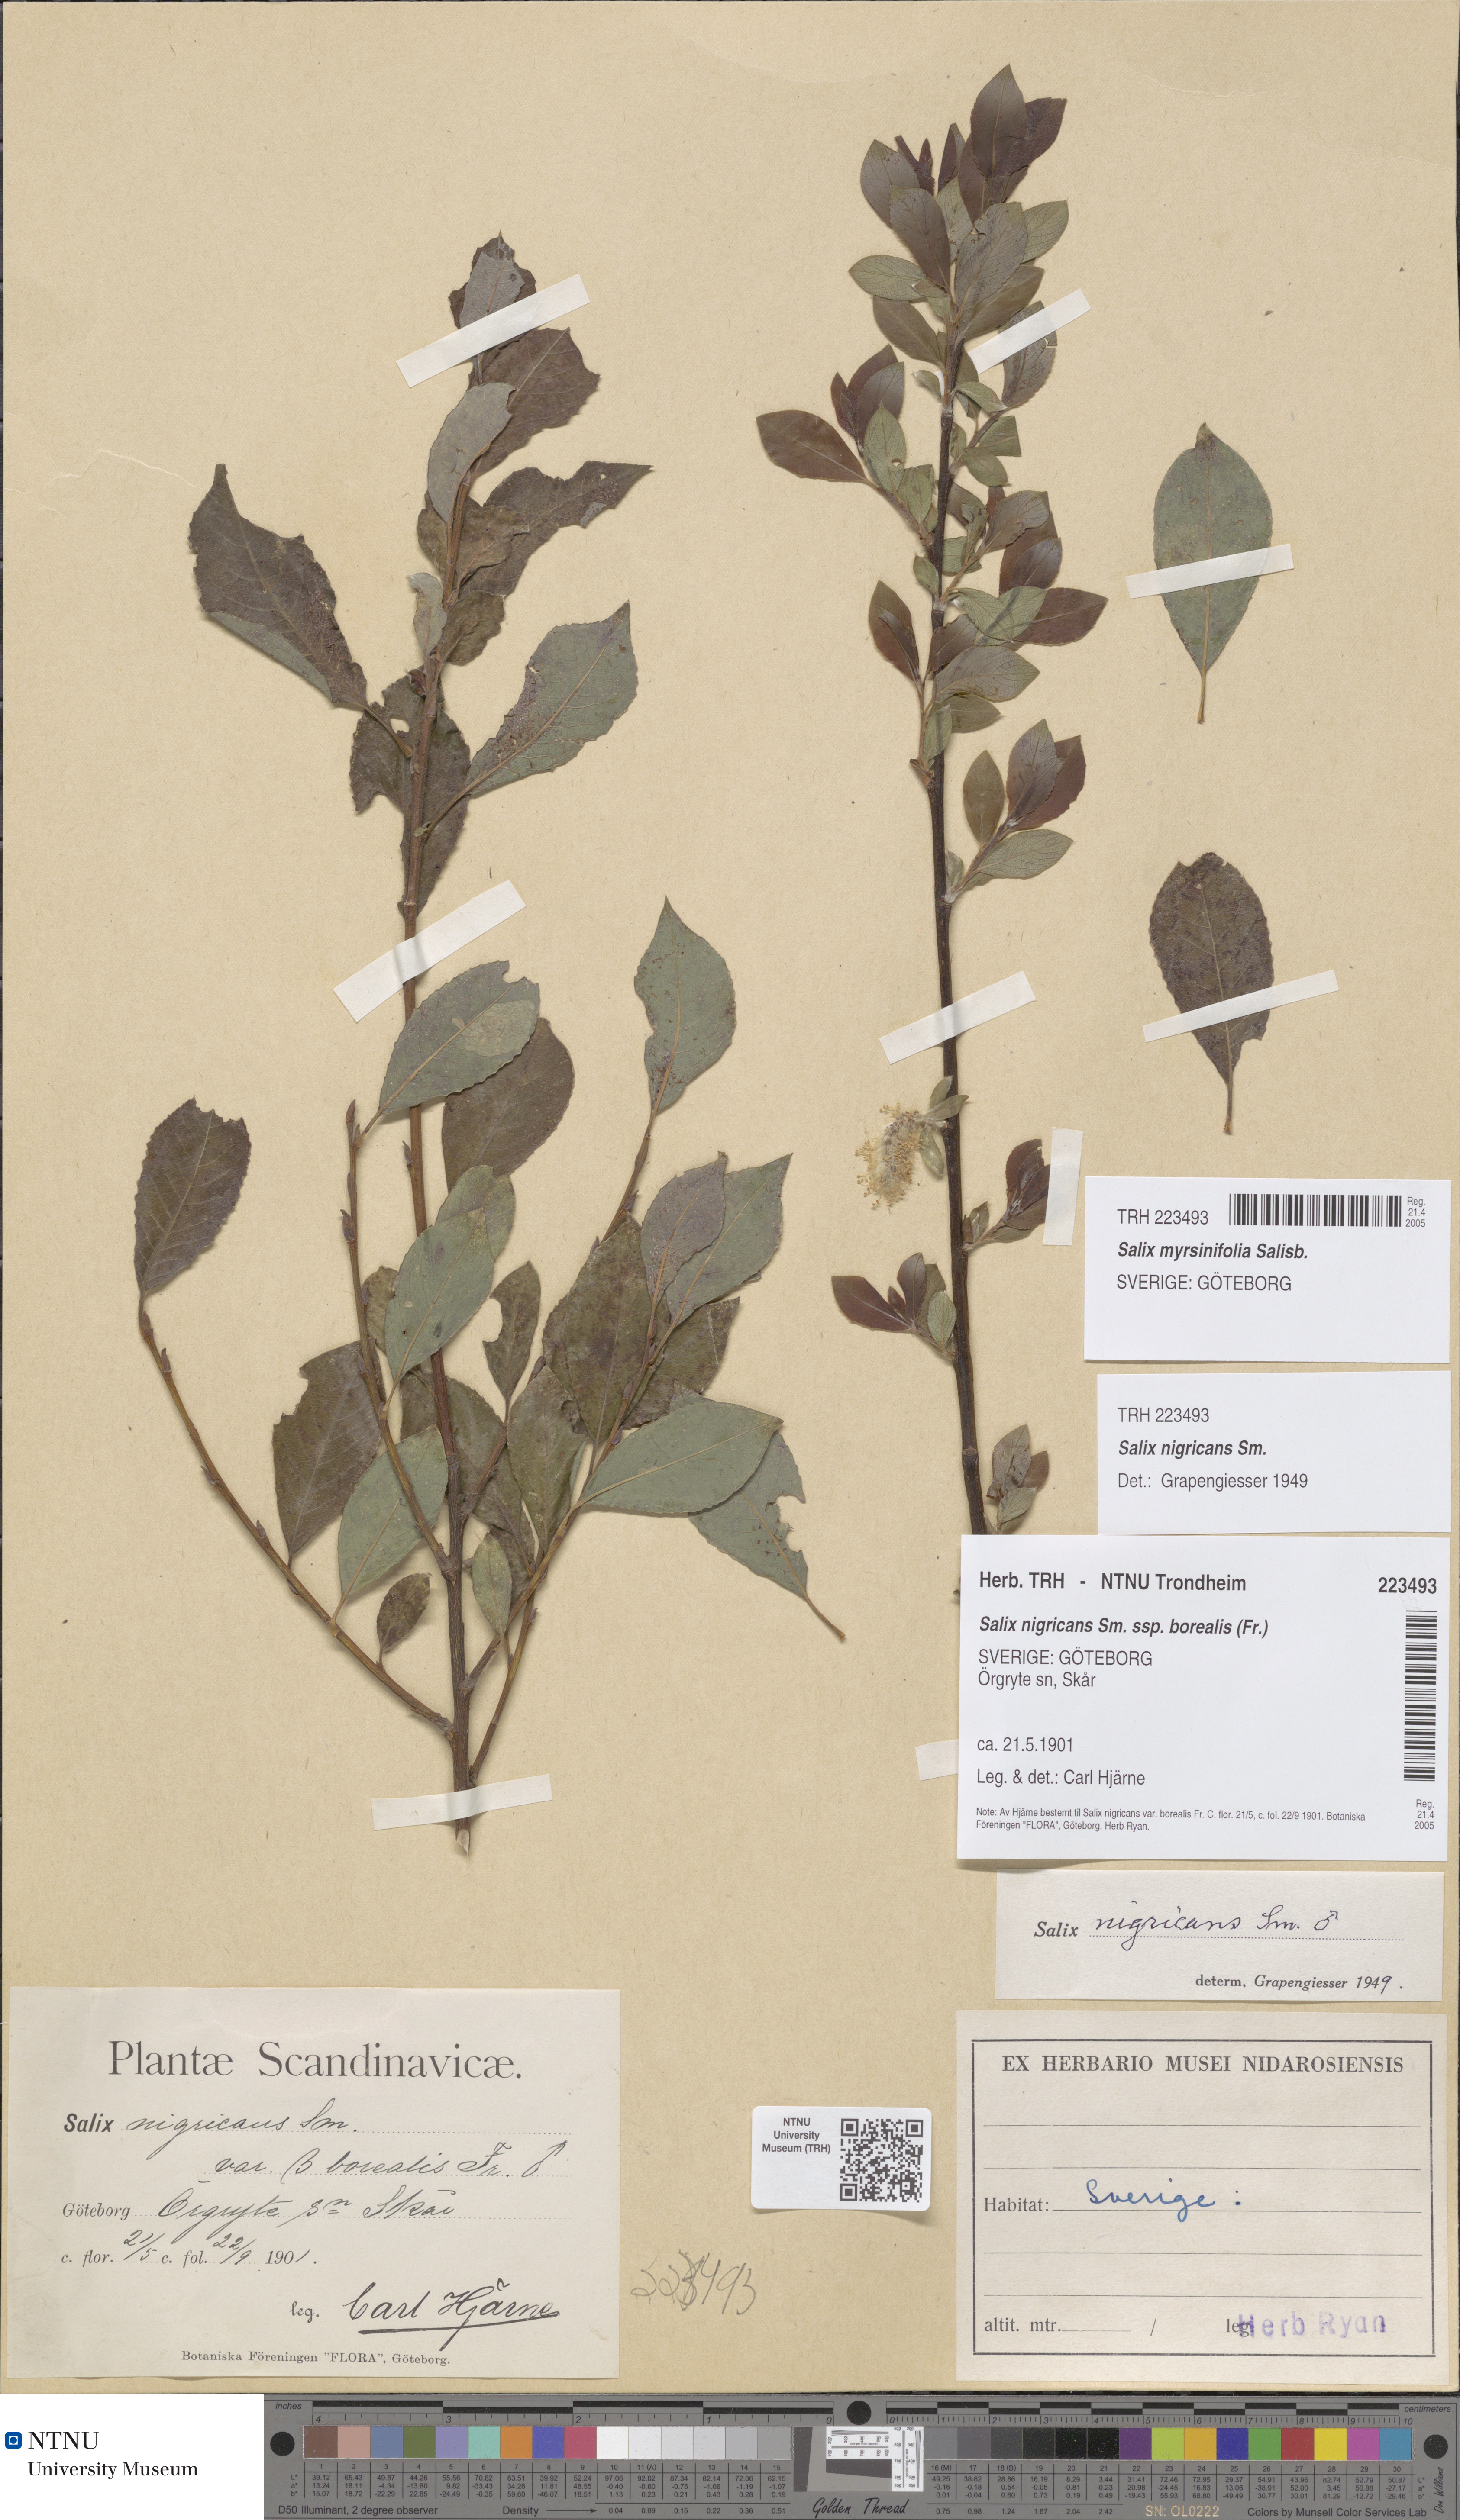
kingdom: Plantae
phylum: Tracheophyta
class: Magnoliopsida
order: Malpighiales
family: Salicaceae
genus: Salix
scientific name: Salix myrsinifolia
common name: Dark-leaved willow
